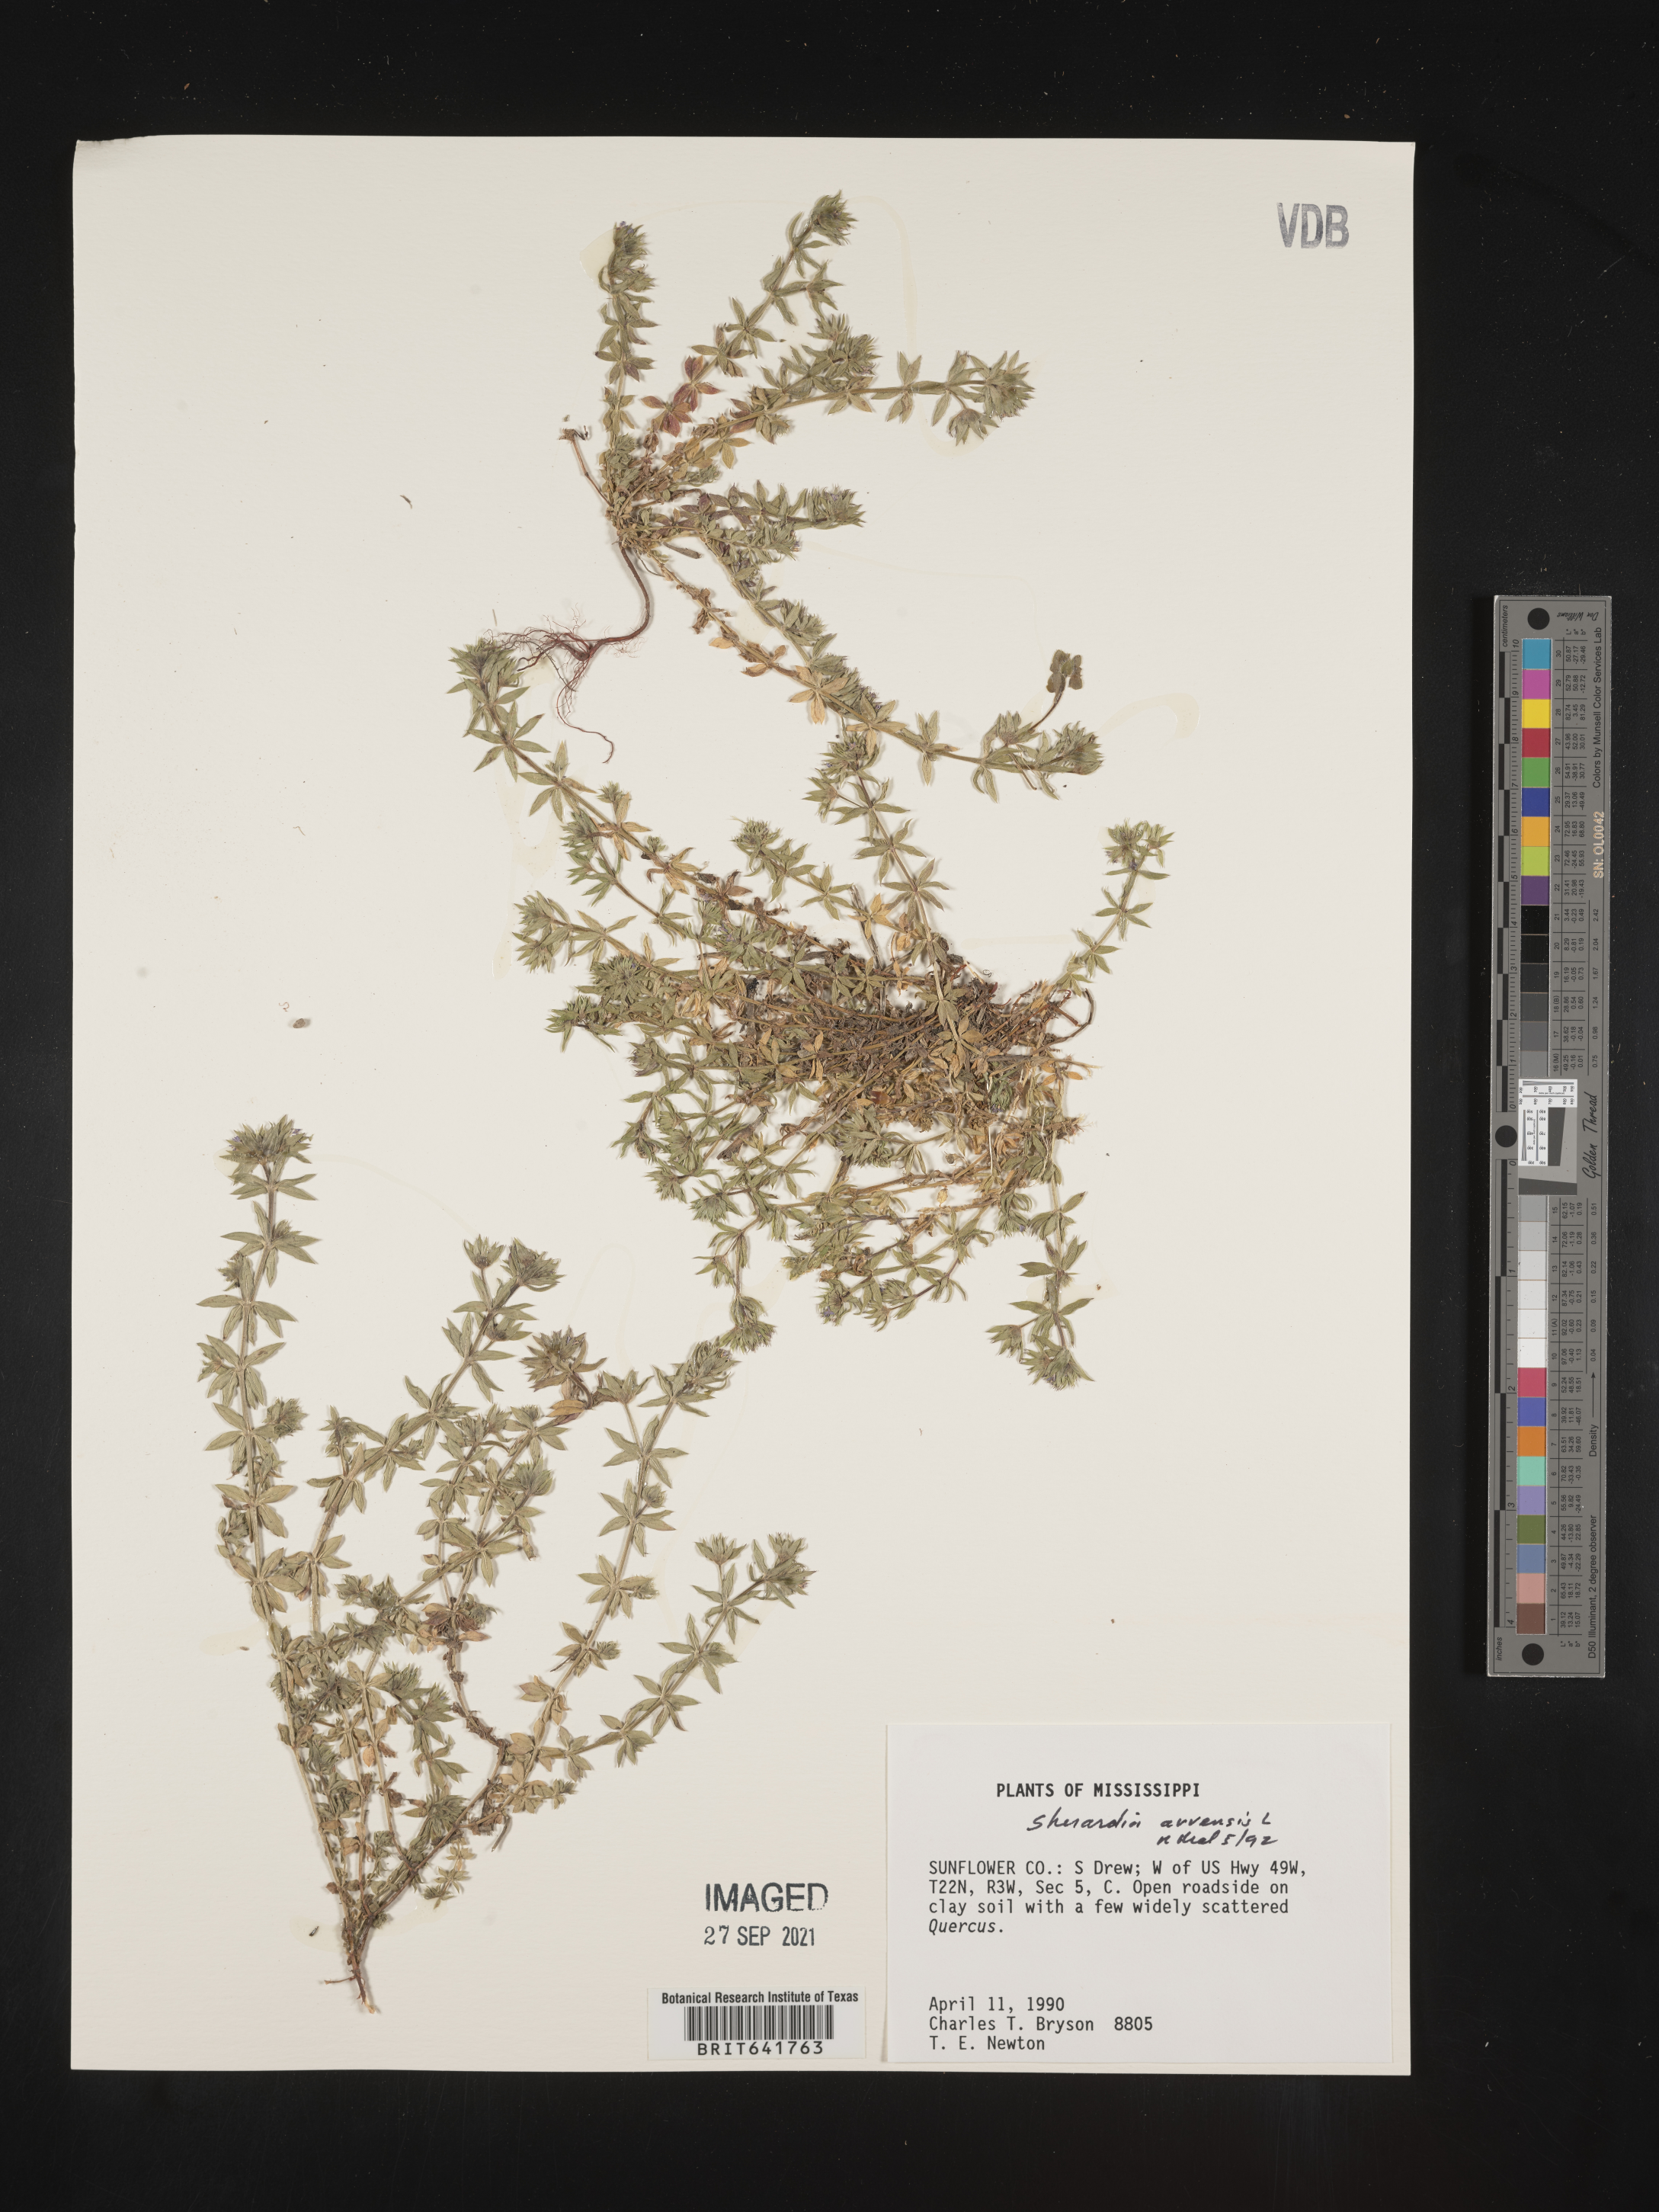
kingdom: Plantae
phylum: Tracheophyta
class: Magnoliopsida
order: Gentianales
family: Rubiaceae
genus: Sherardia
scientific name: Sherardia arvensis
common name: Field madder
